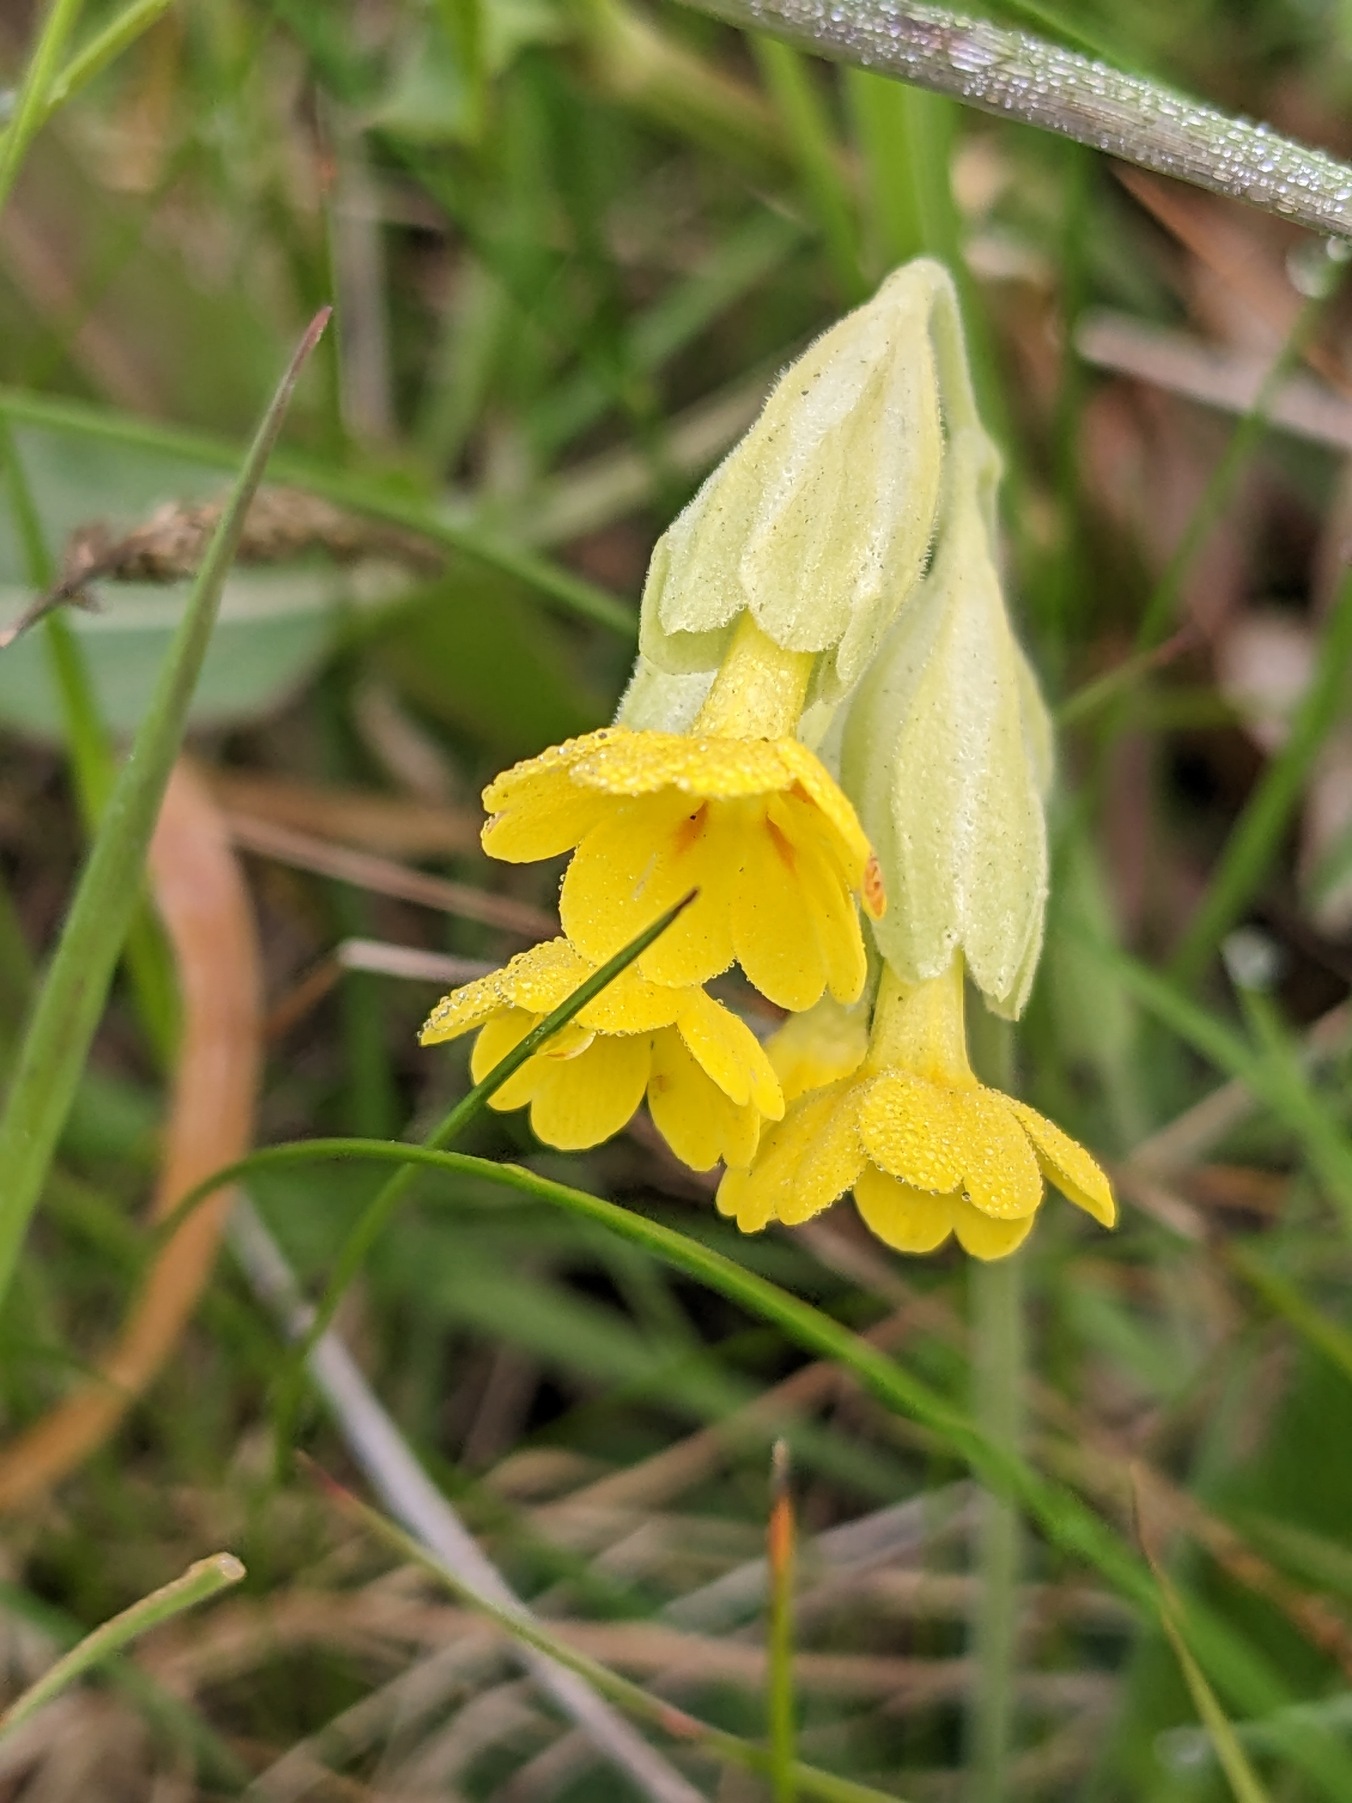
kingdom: Plantae
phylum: Tracheophyta
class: Magnoliopsida
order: Ericales
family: Primulaceae
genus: Primula
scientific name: Primula veris
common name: Hulkravet kodriver
